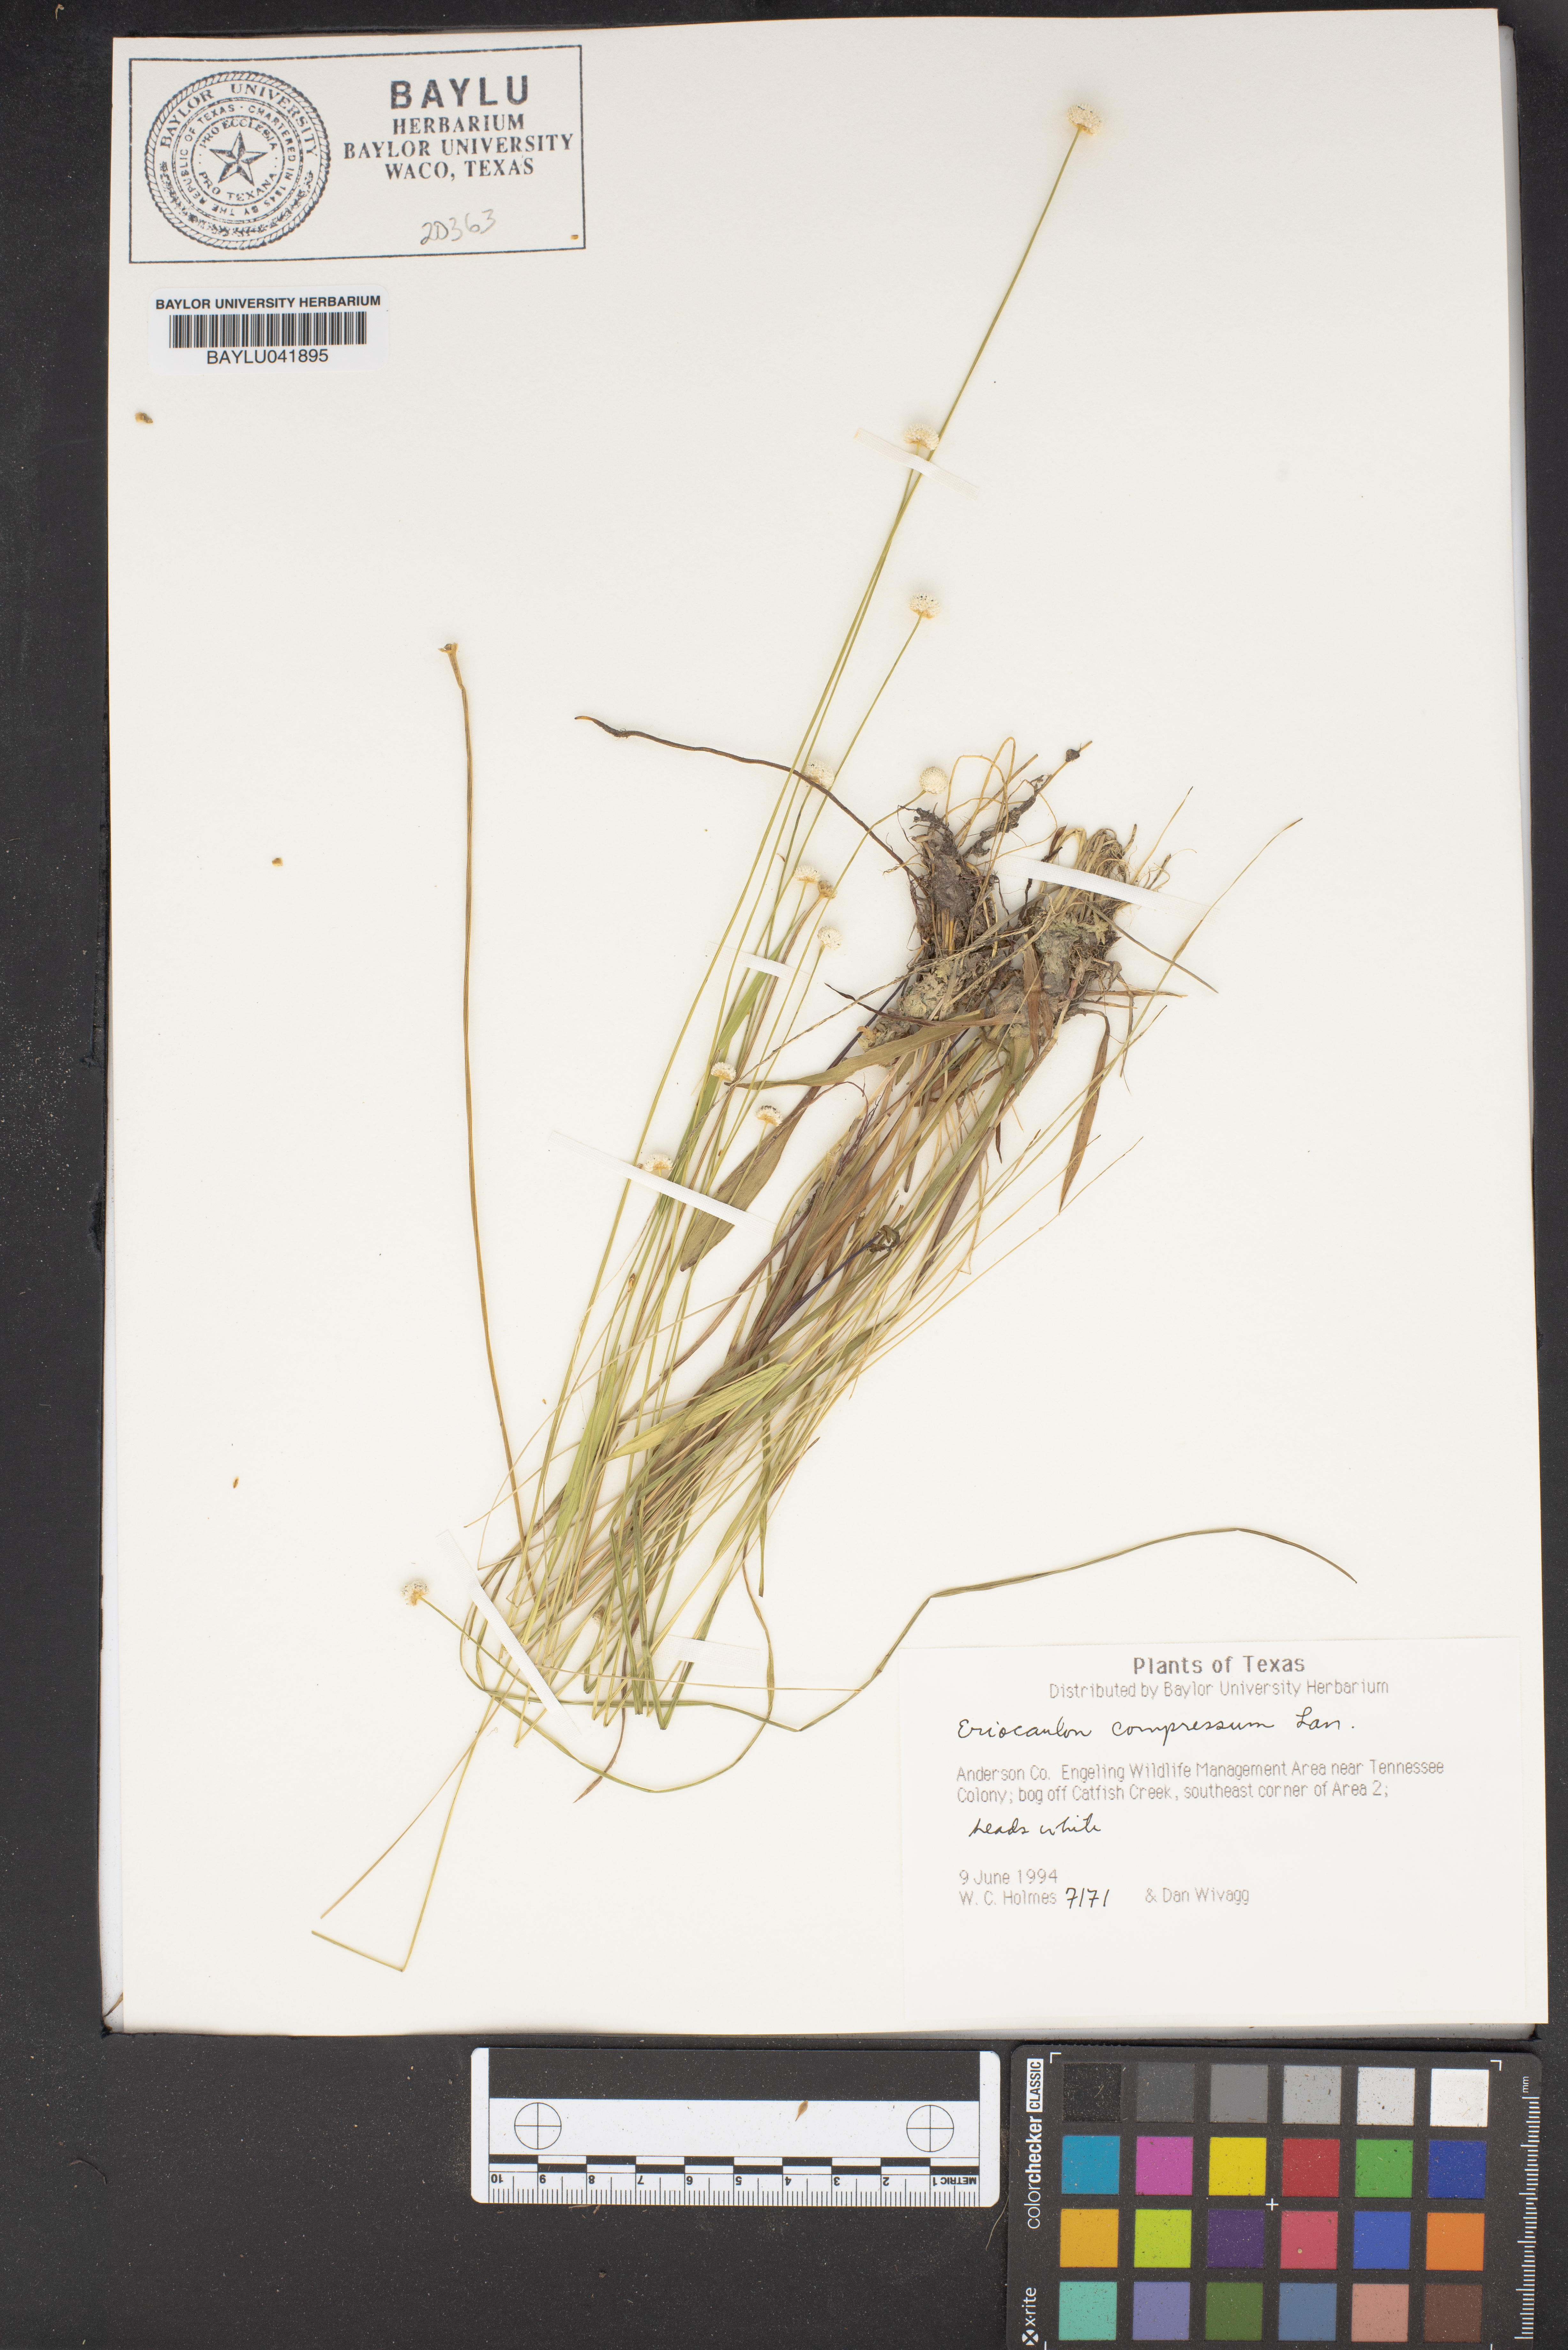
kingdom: Plantae
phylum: Tracheophyta
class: Liliopsida
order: Poales
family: Eriocaulaceae
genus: Eriocaulon
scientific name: Eriocaulon compressum
